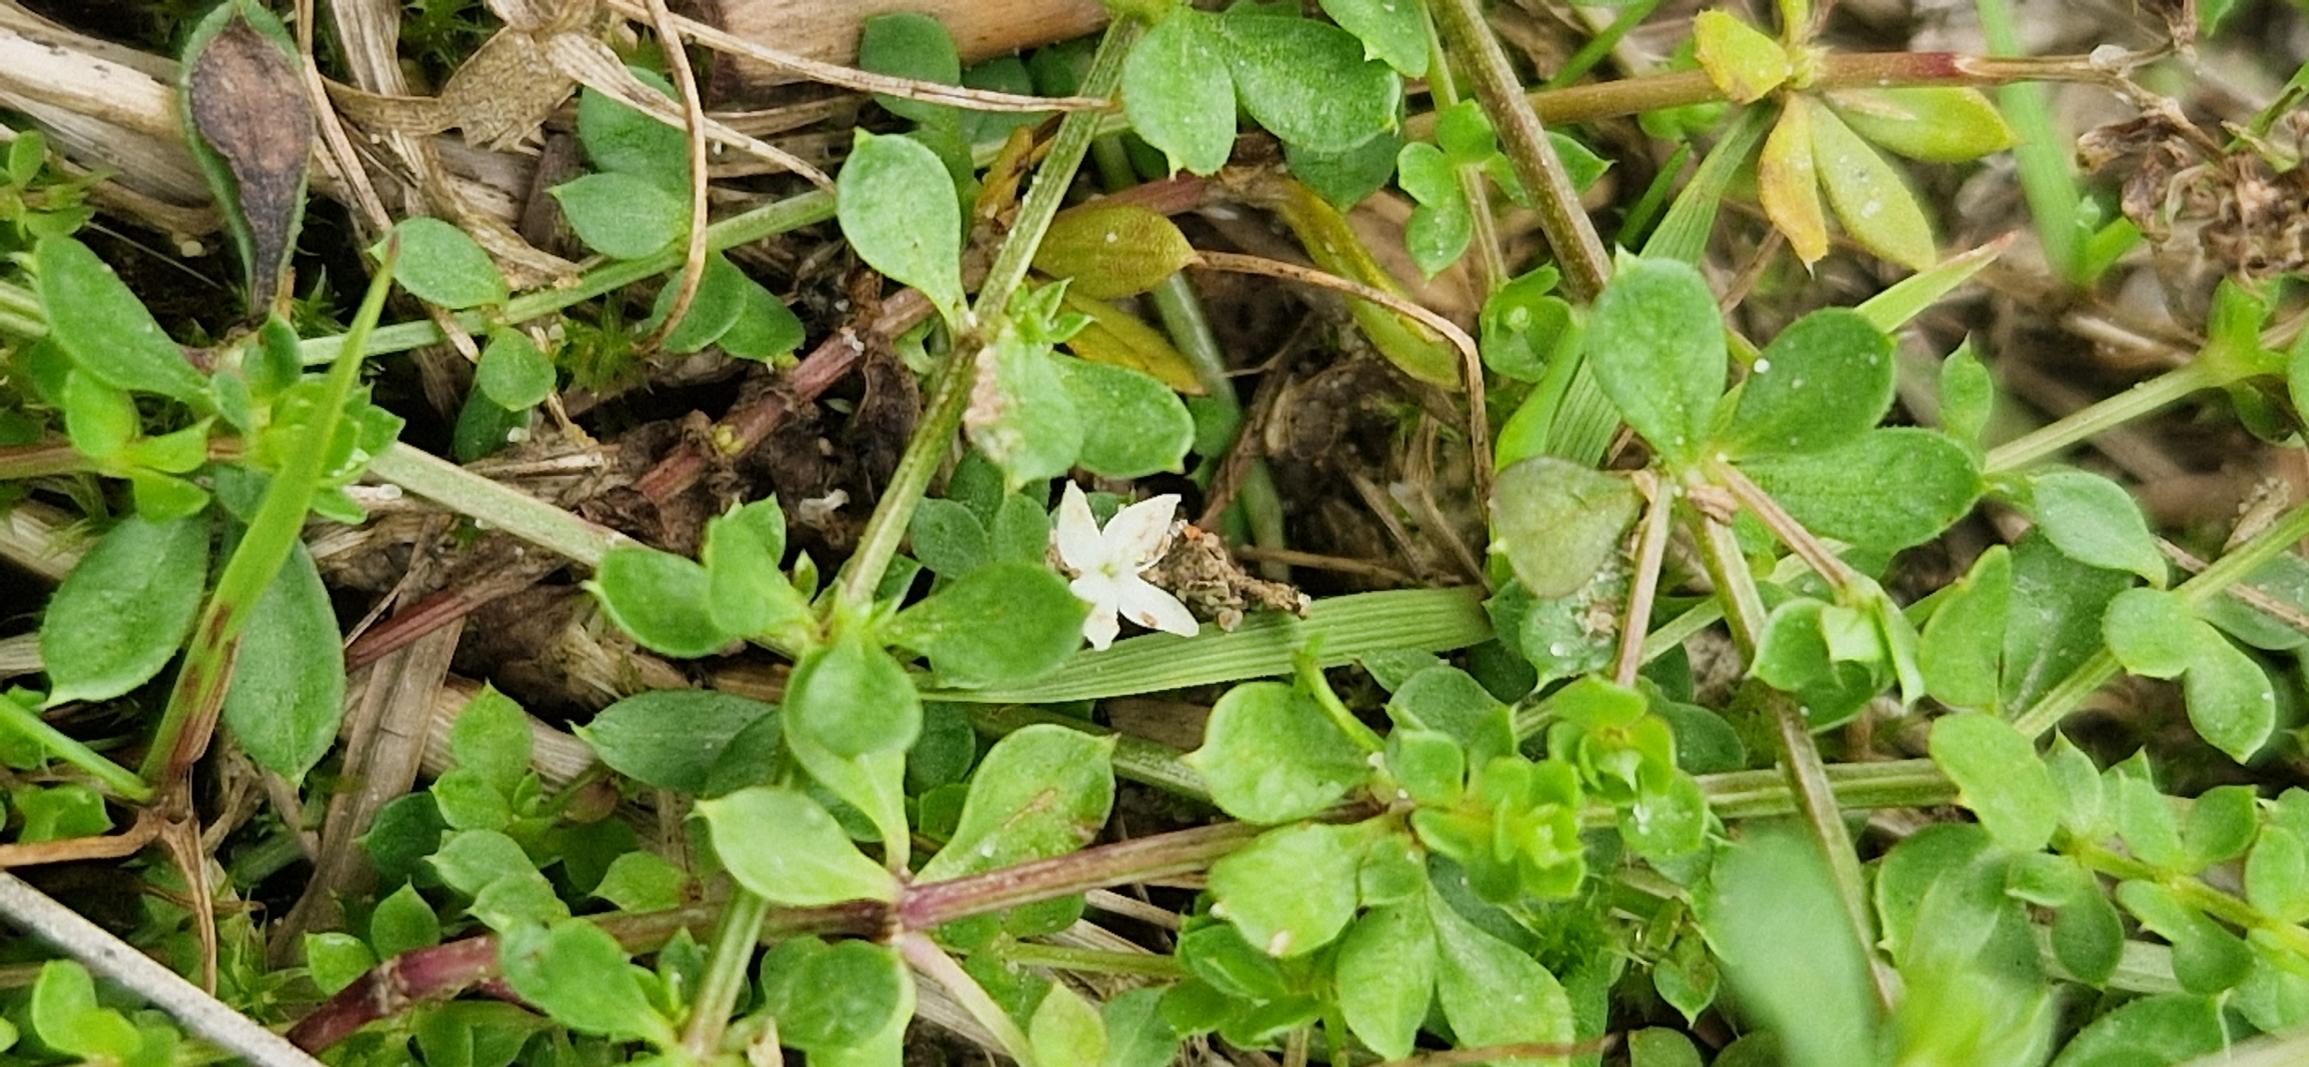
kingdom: Plantae
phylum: Tracheophyta
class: Magnoliopsida
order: Gentianales
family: Rubiaceae
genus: Galium
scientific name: Galium saxatile
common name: Lyng-snerre
